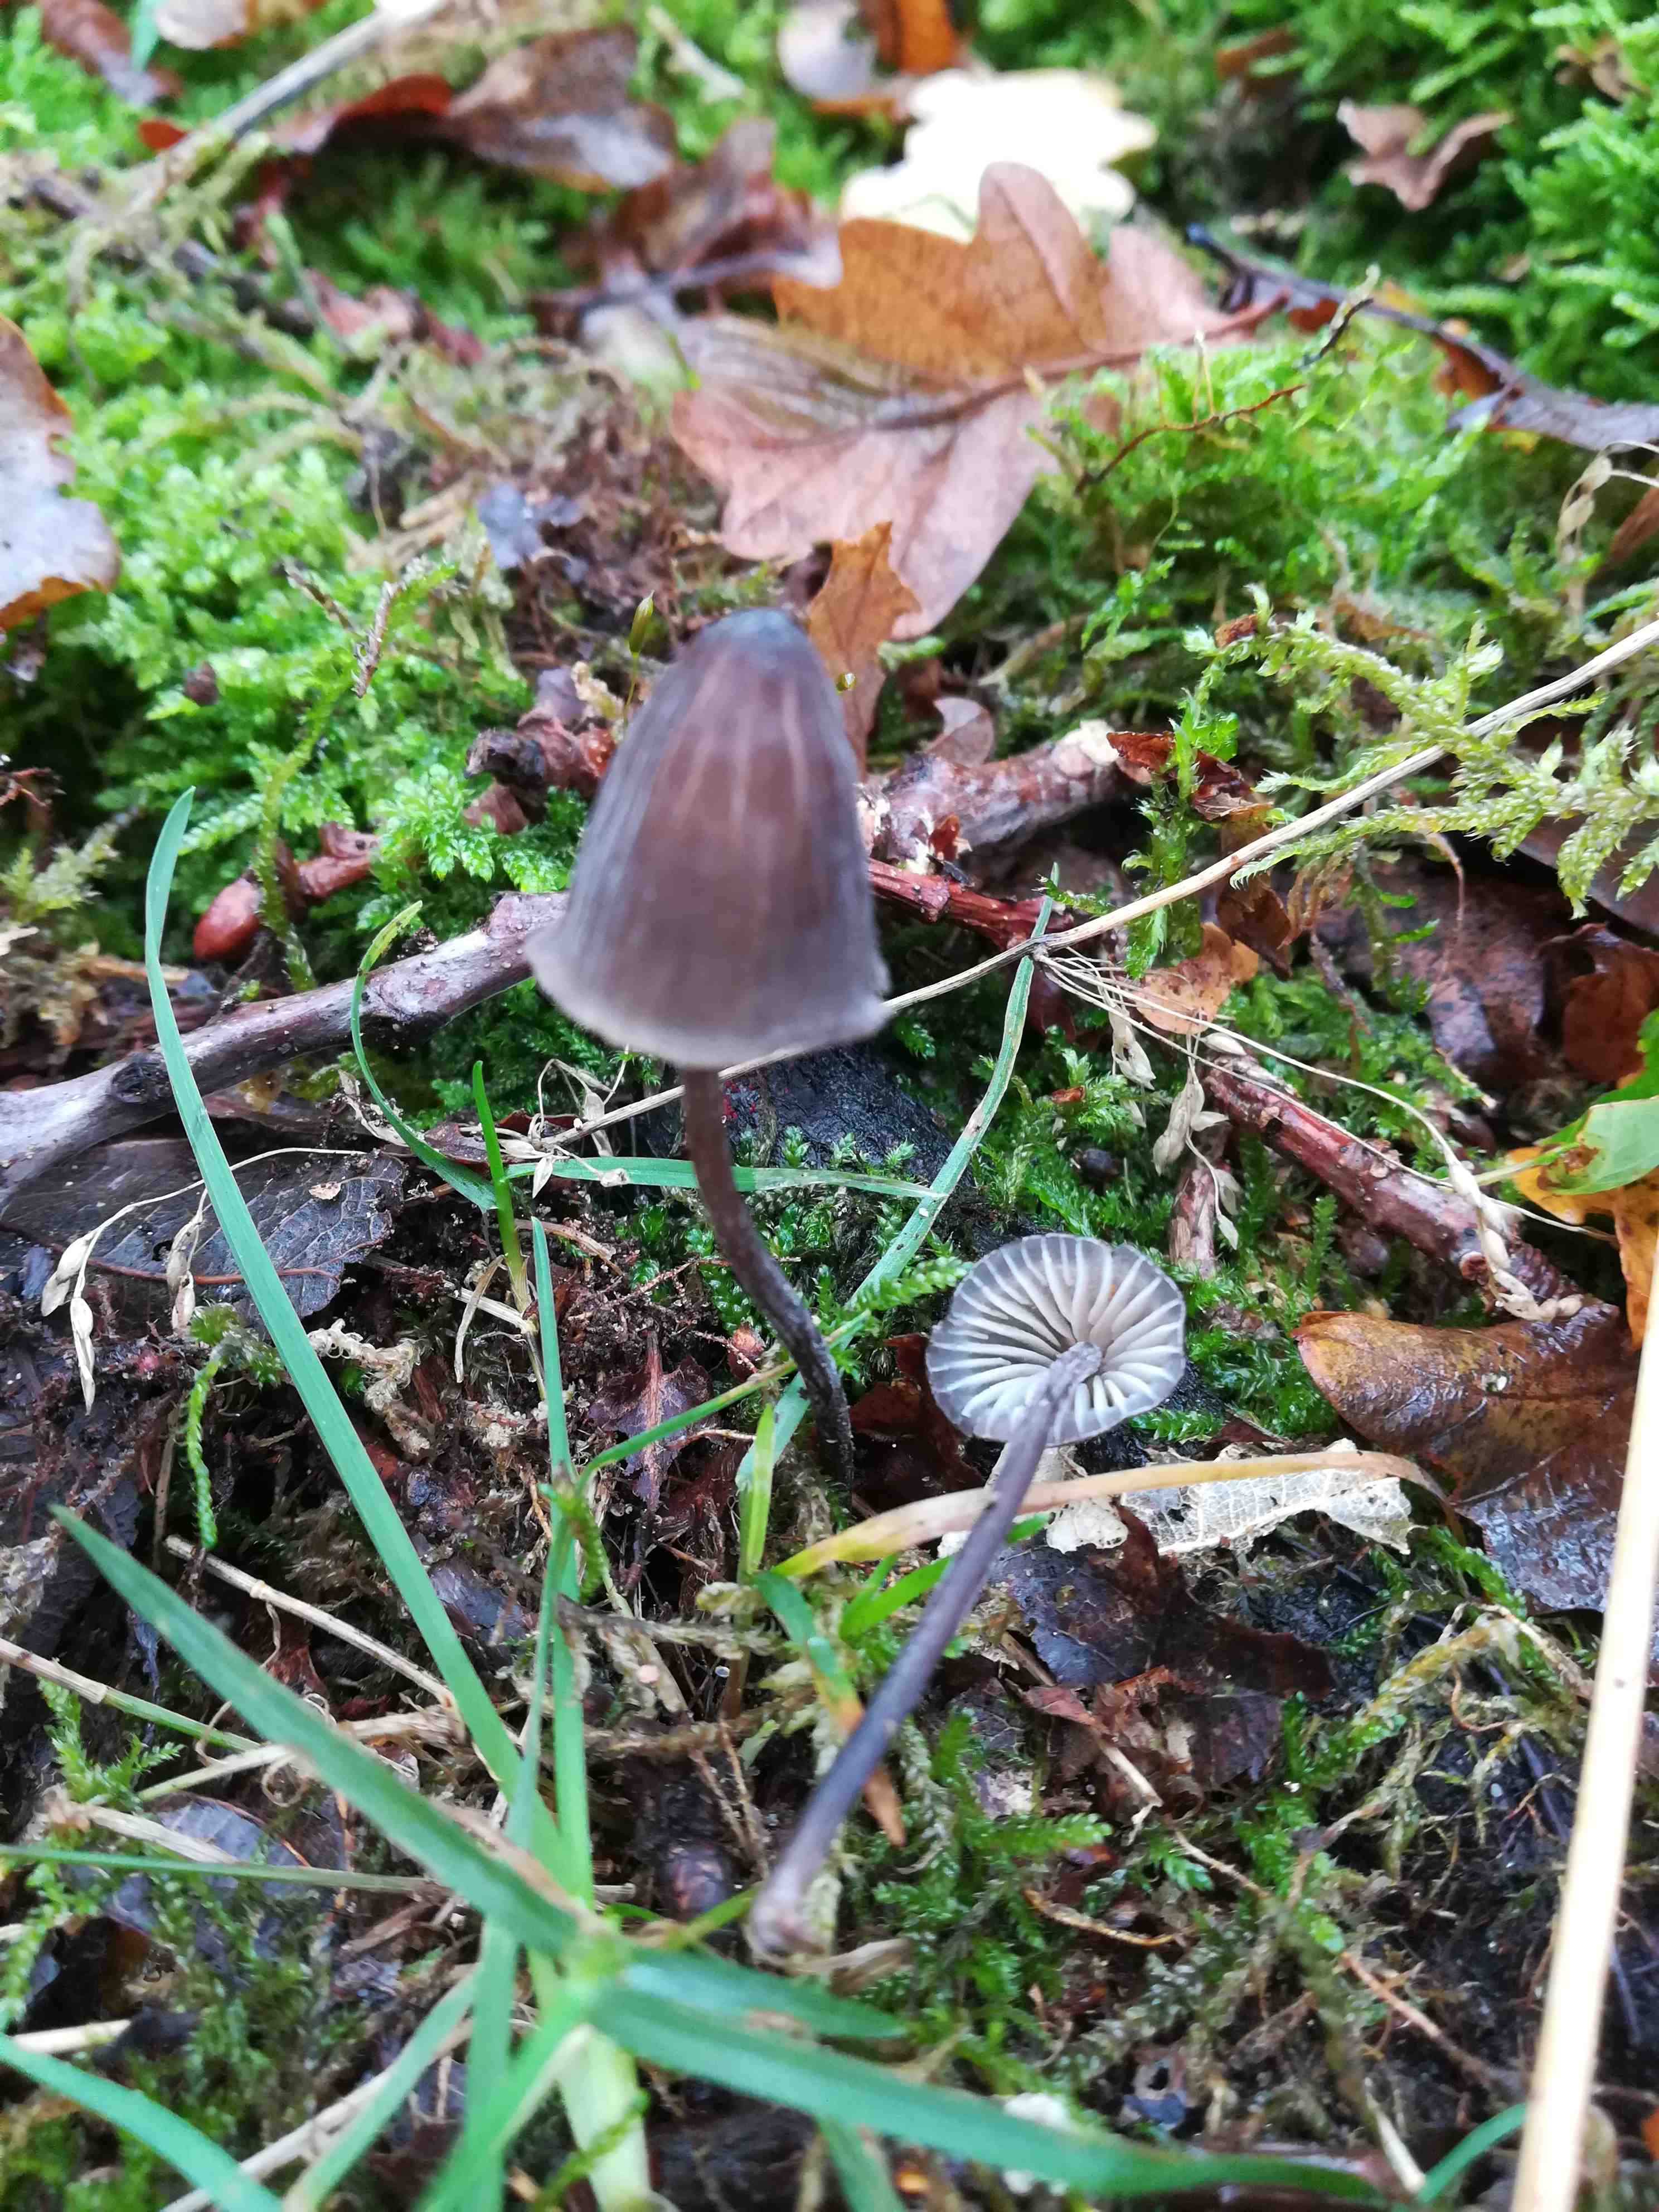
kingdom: Fungi
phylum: Basidiomycota
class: Agaricomycetes
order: Agaricales
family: Mycenaceae
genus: Mycena
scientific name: Mycena galopus
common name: hvidmælket huesvamp
